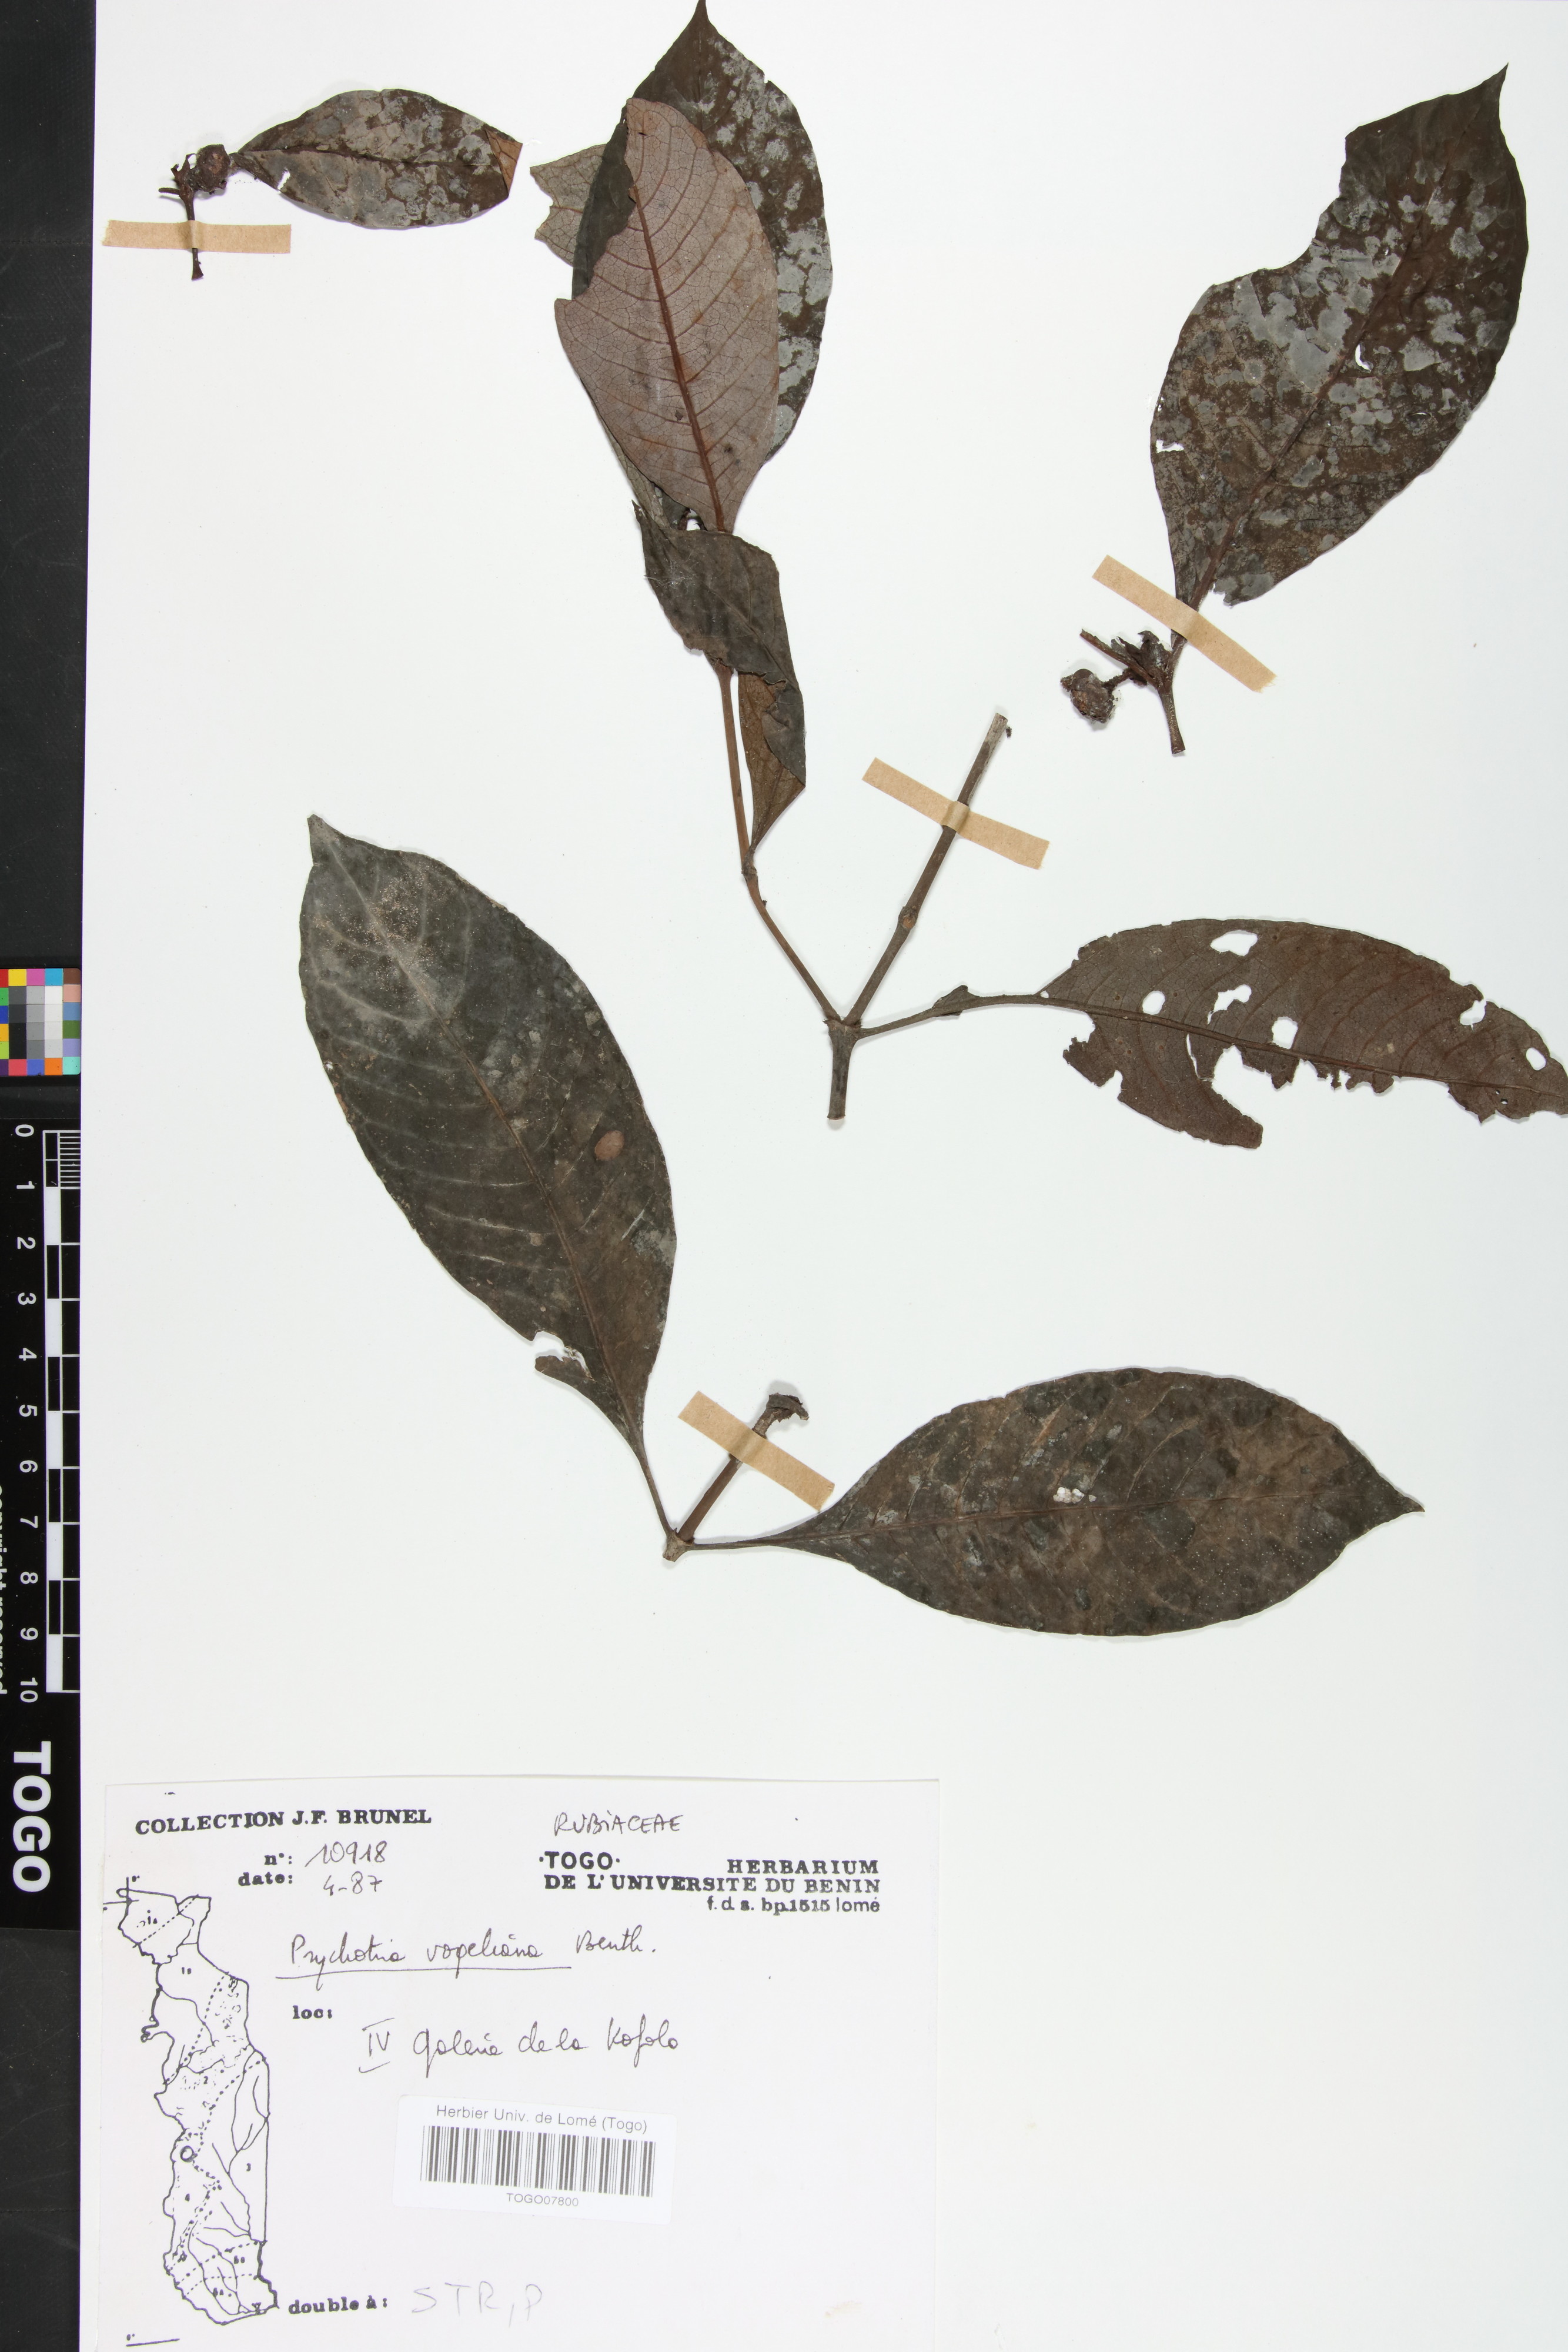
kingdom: Plantae
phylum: Tracheophyta
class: Magnoliopsida
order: Gentianales
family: Rubiaceae
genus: Psychotria
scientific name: Psychotria vogeliana
